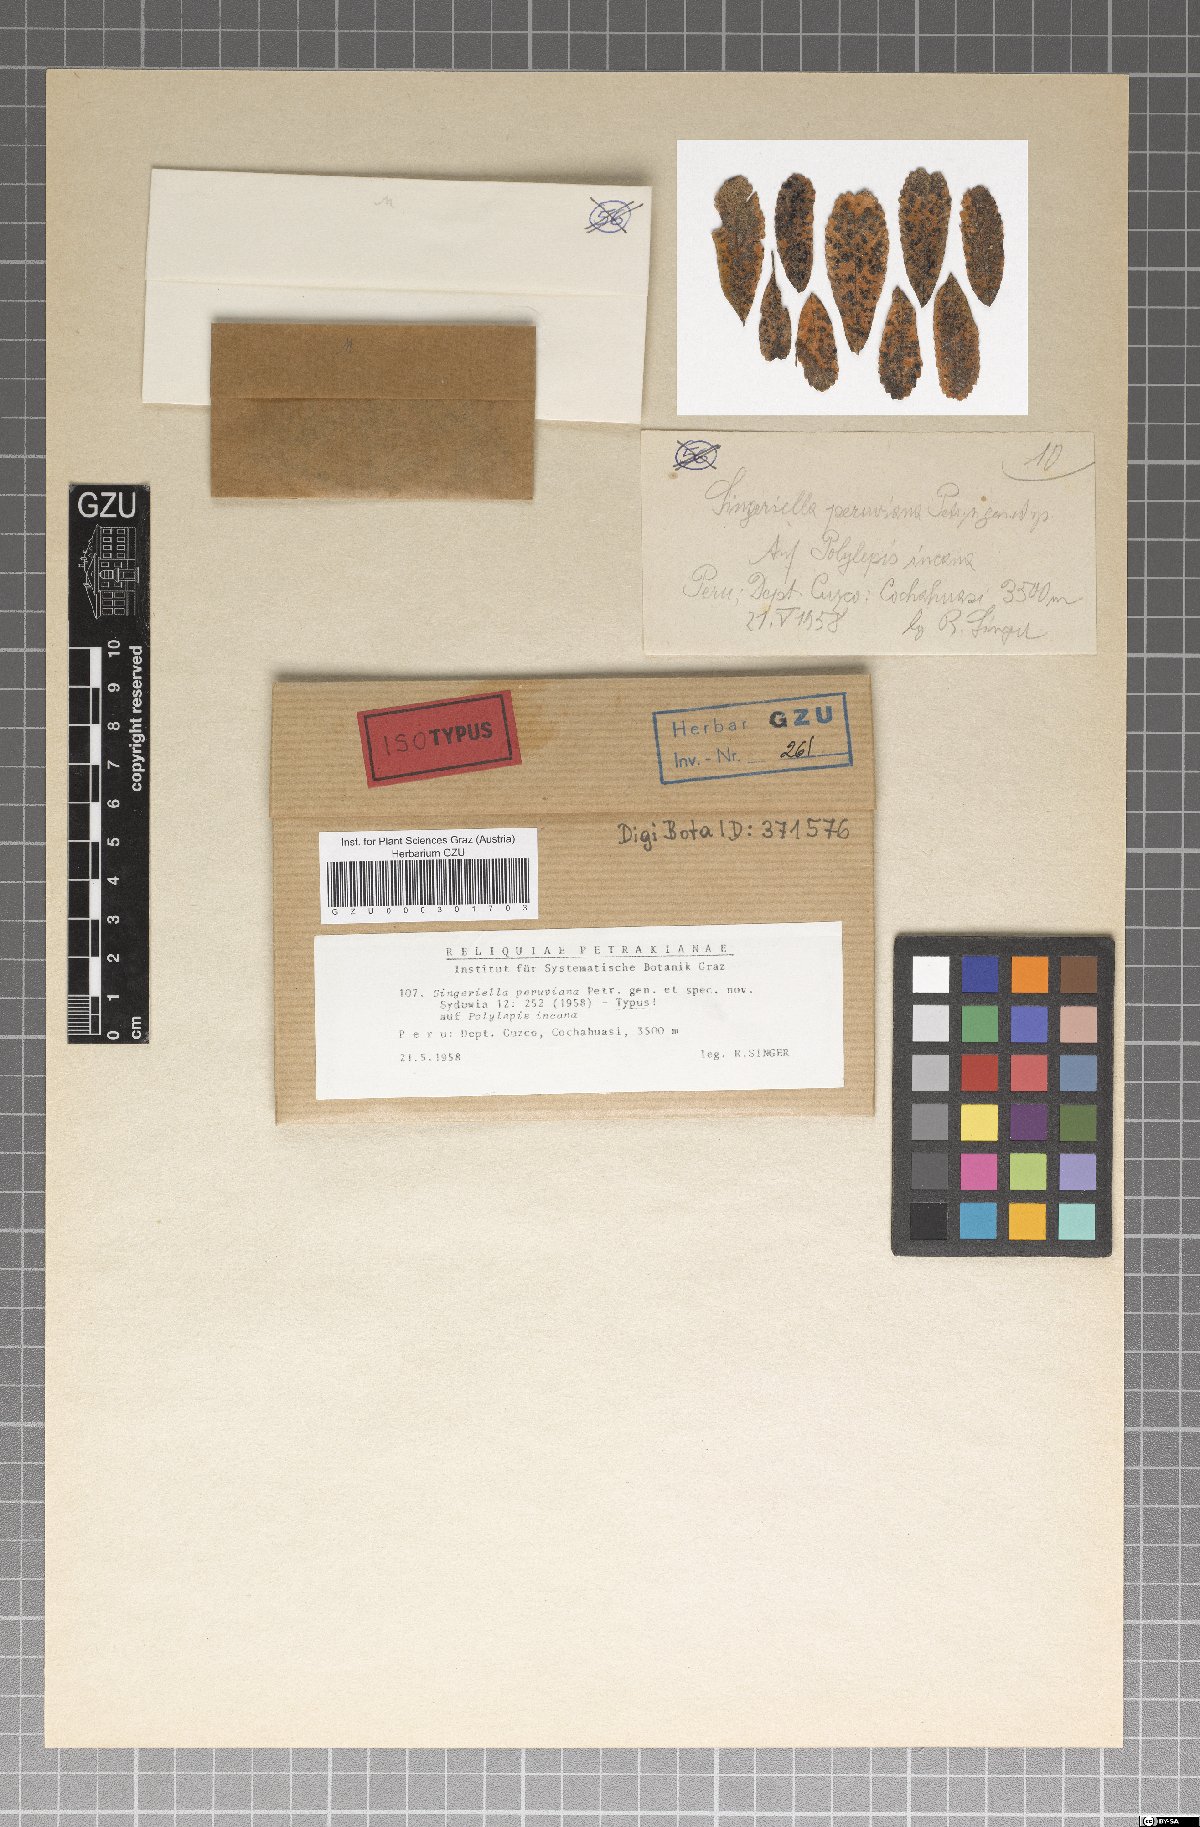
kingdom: Fungi
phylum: Ascomycota
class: Dothideomycetes
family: Vizellaceae
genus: Singeriella
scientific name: Singeriella peruviana
